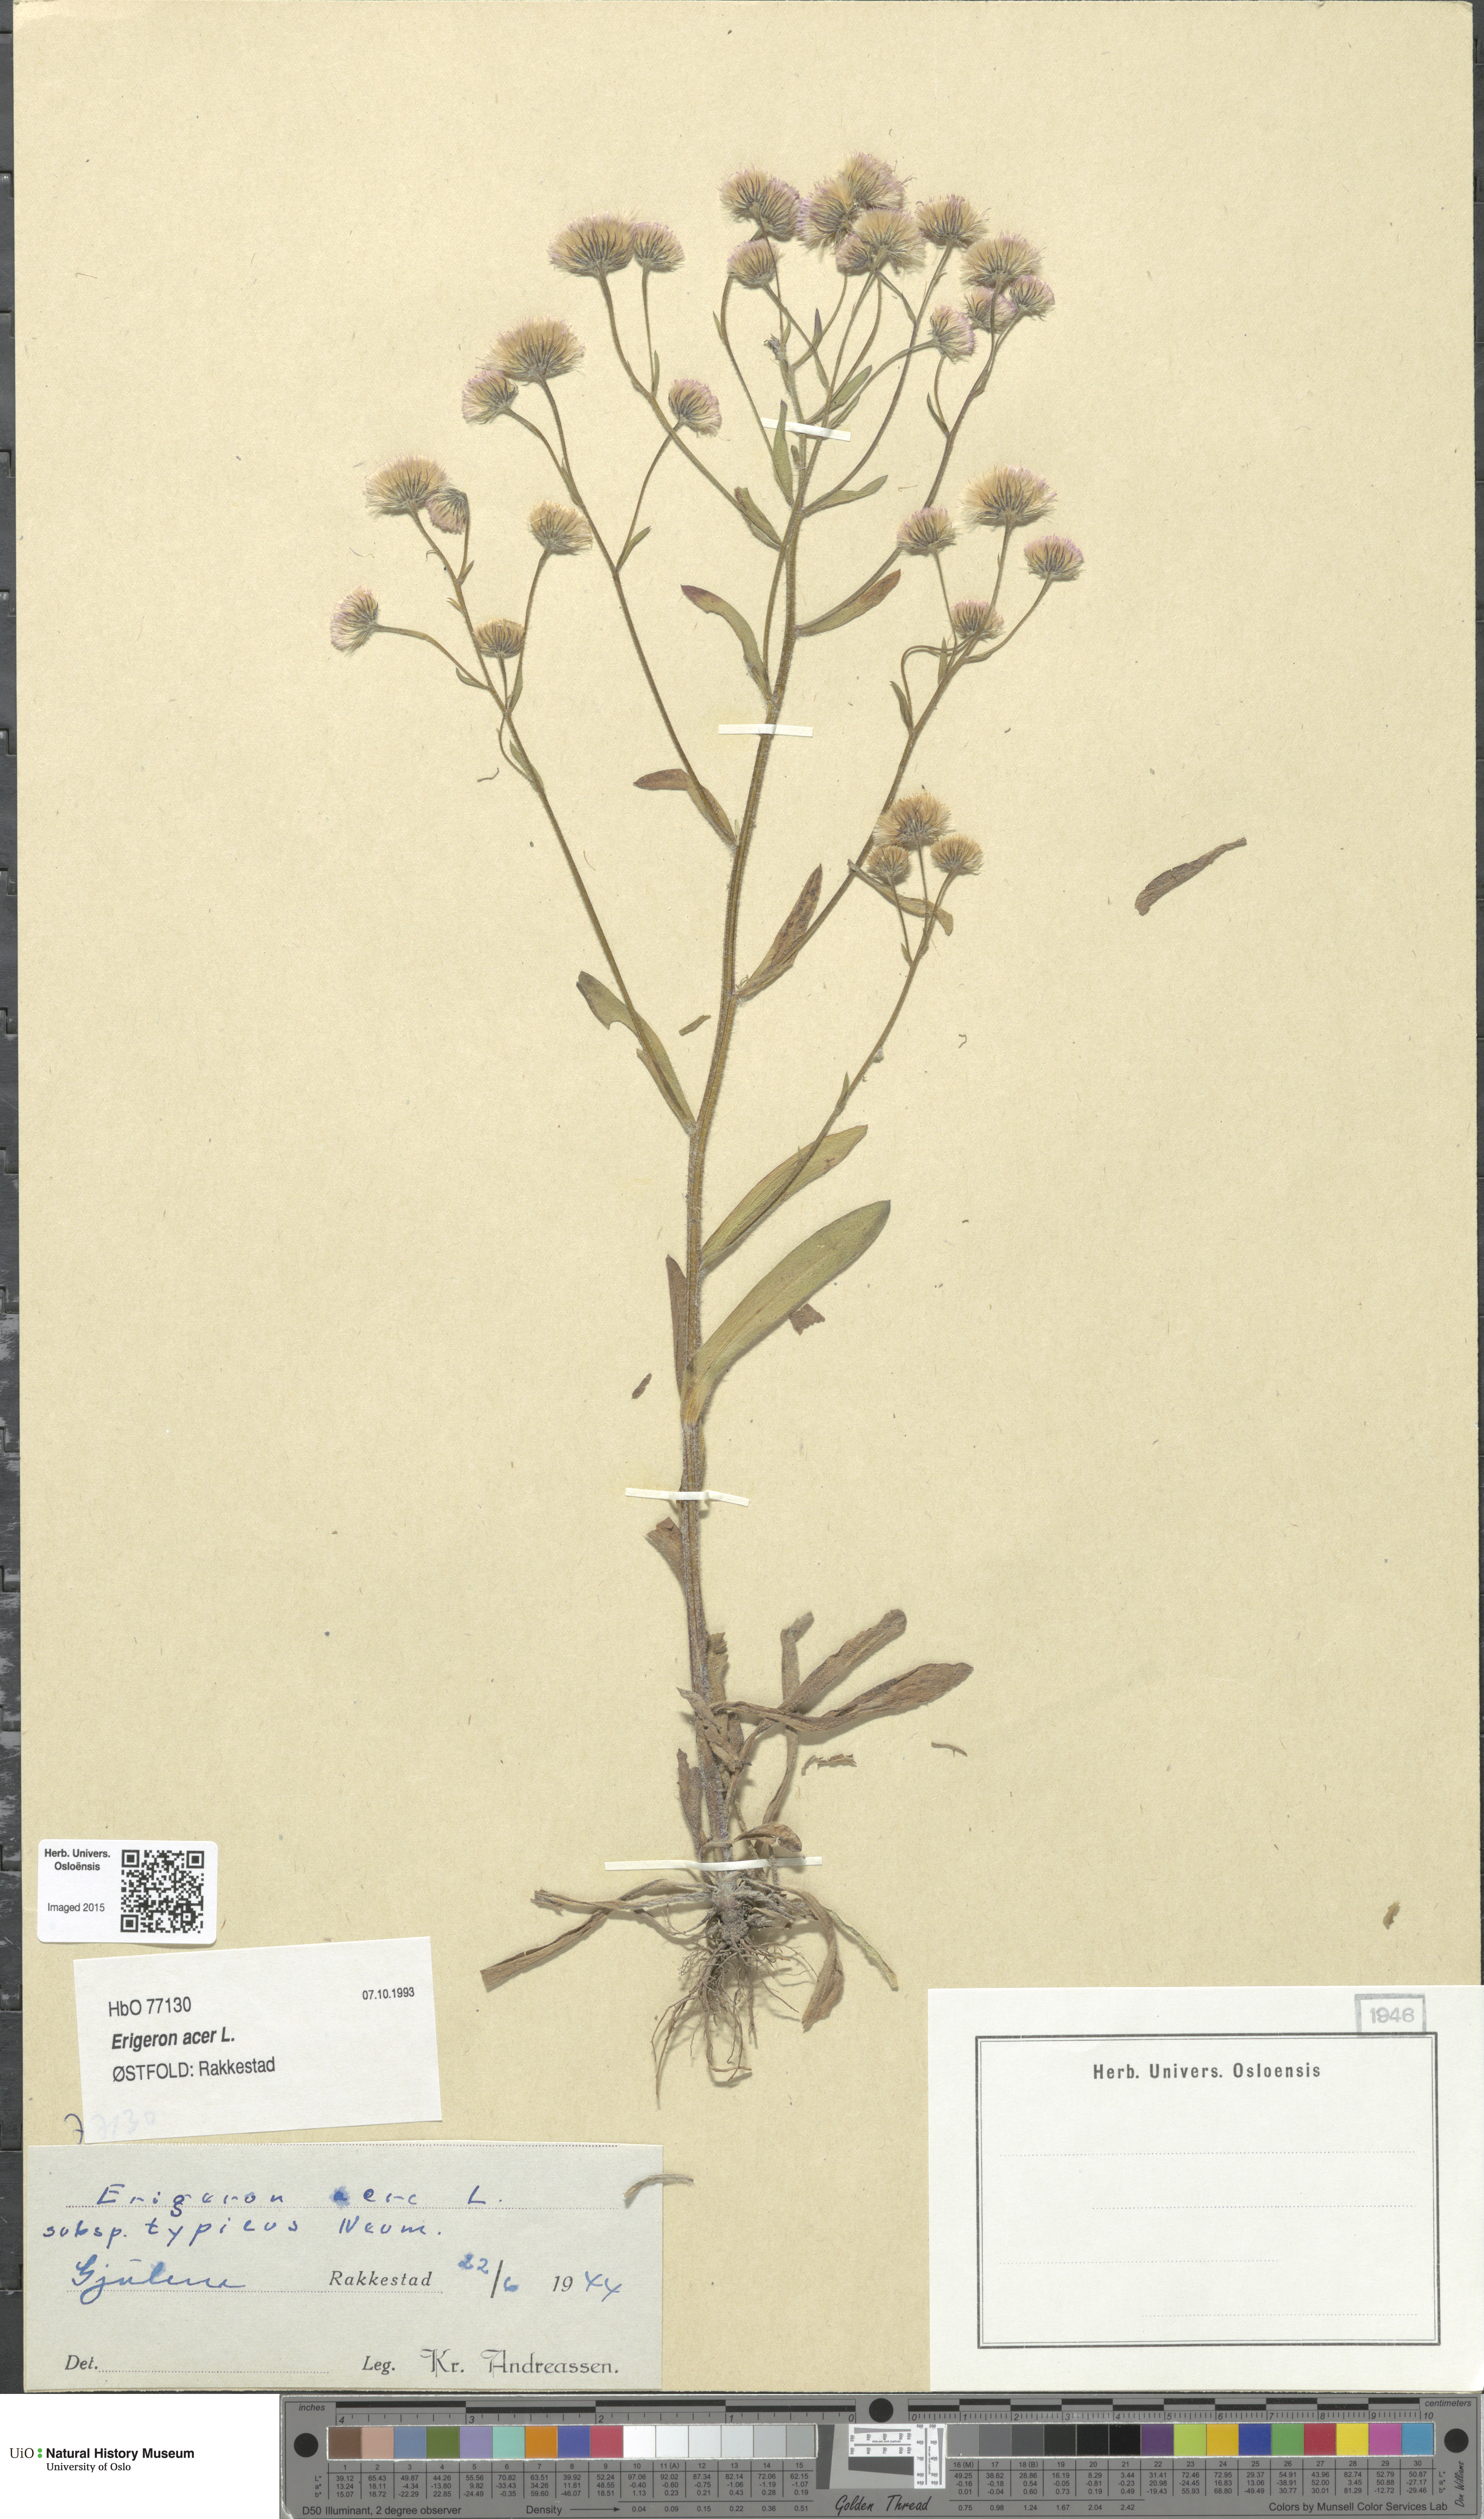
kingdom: Plantae
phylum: Tracheophyta
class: Magnoliopsida
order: Asterales
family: Asteraceae
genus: Erigeron
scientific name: Erigeron acris
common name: Blue fleabane
